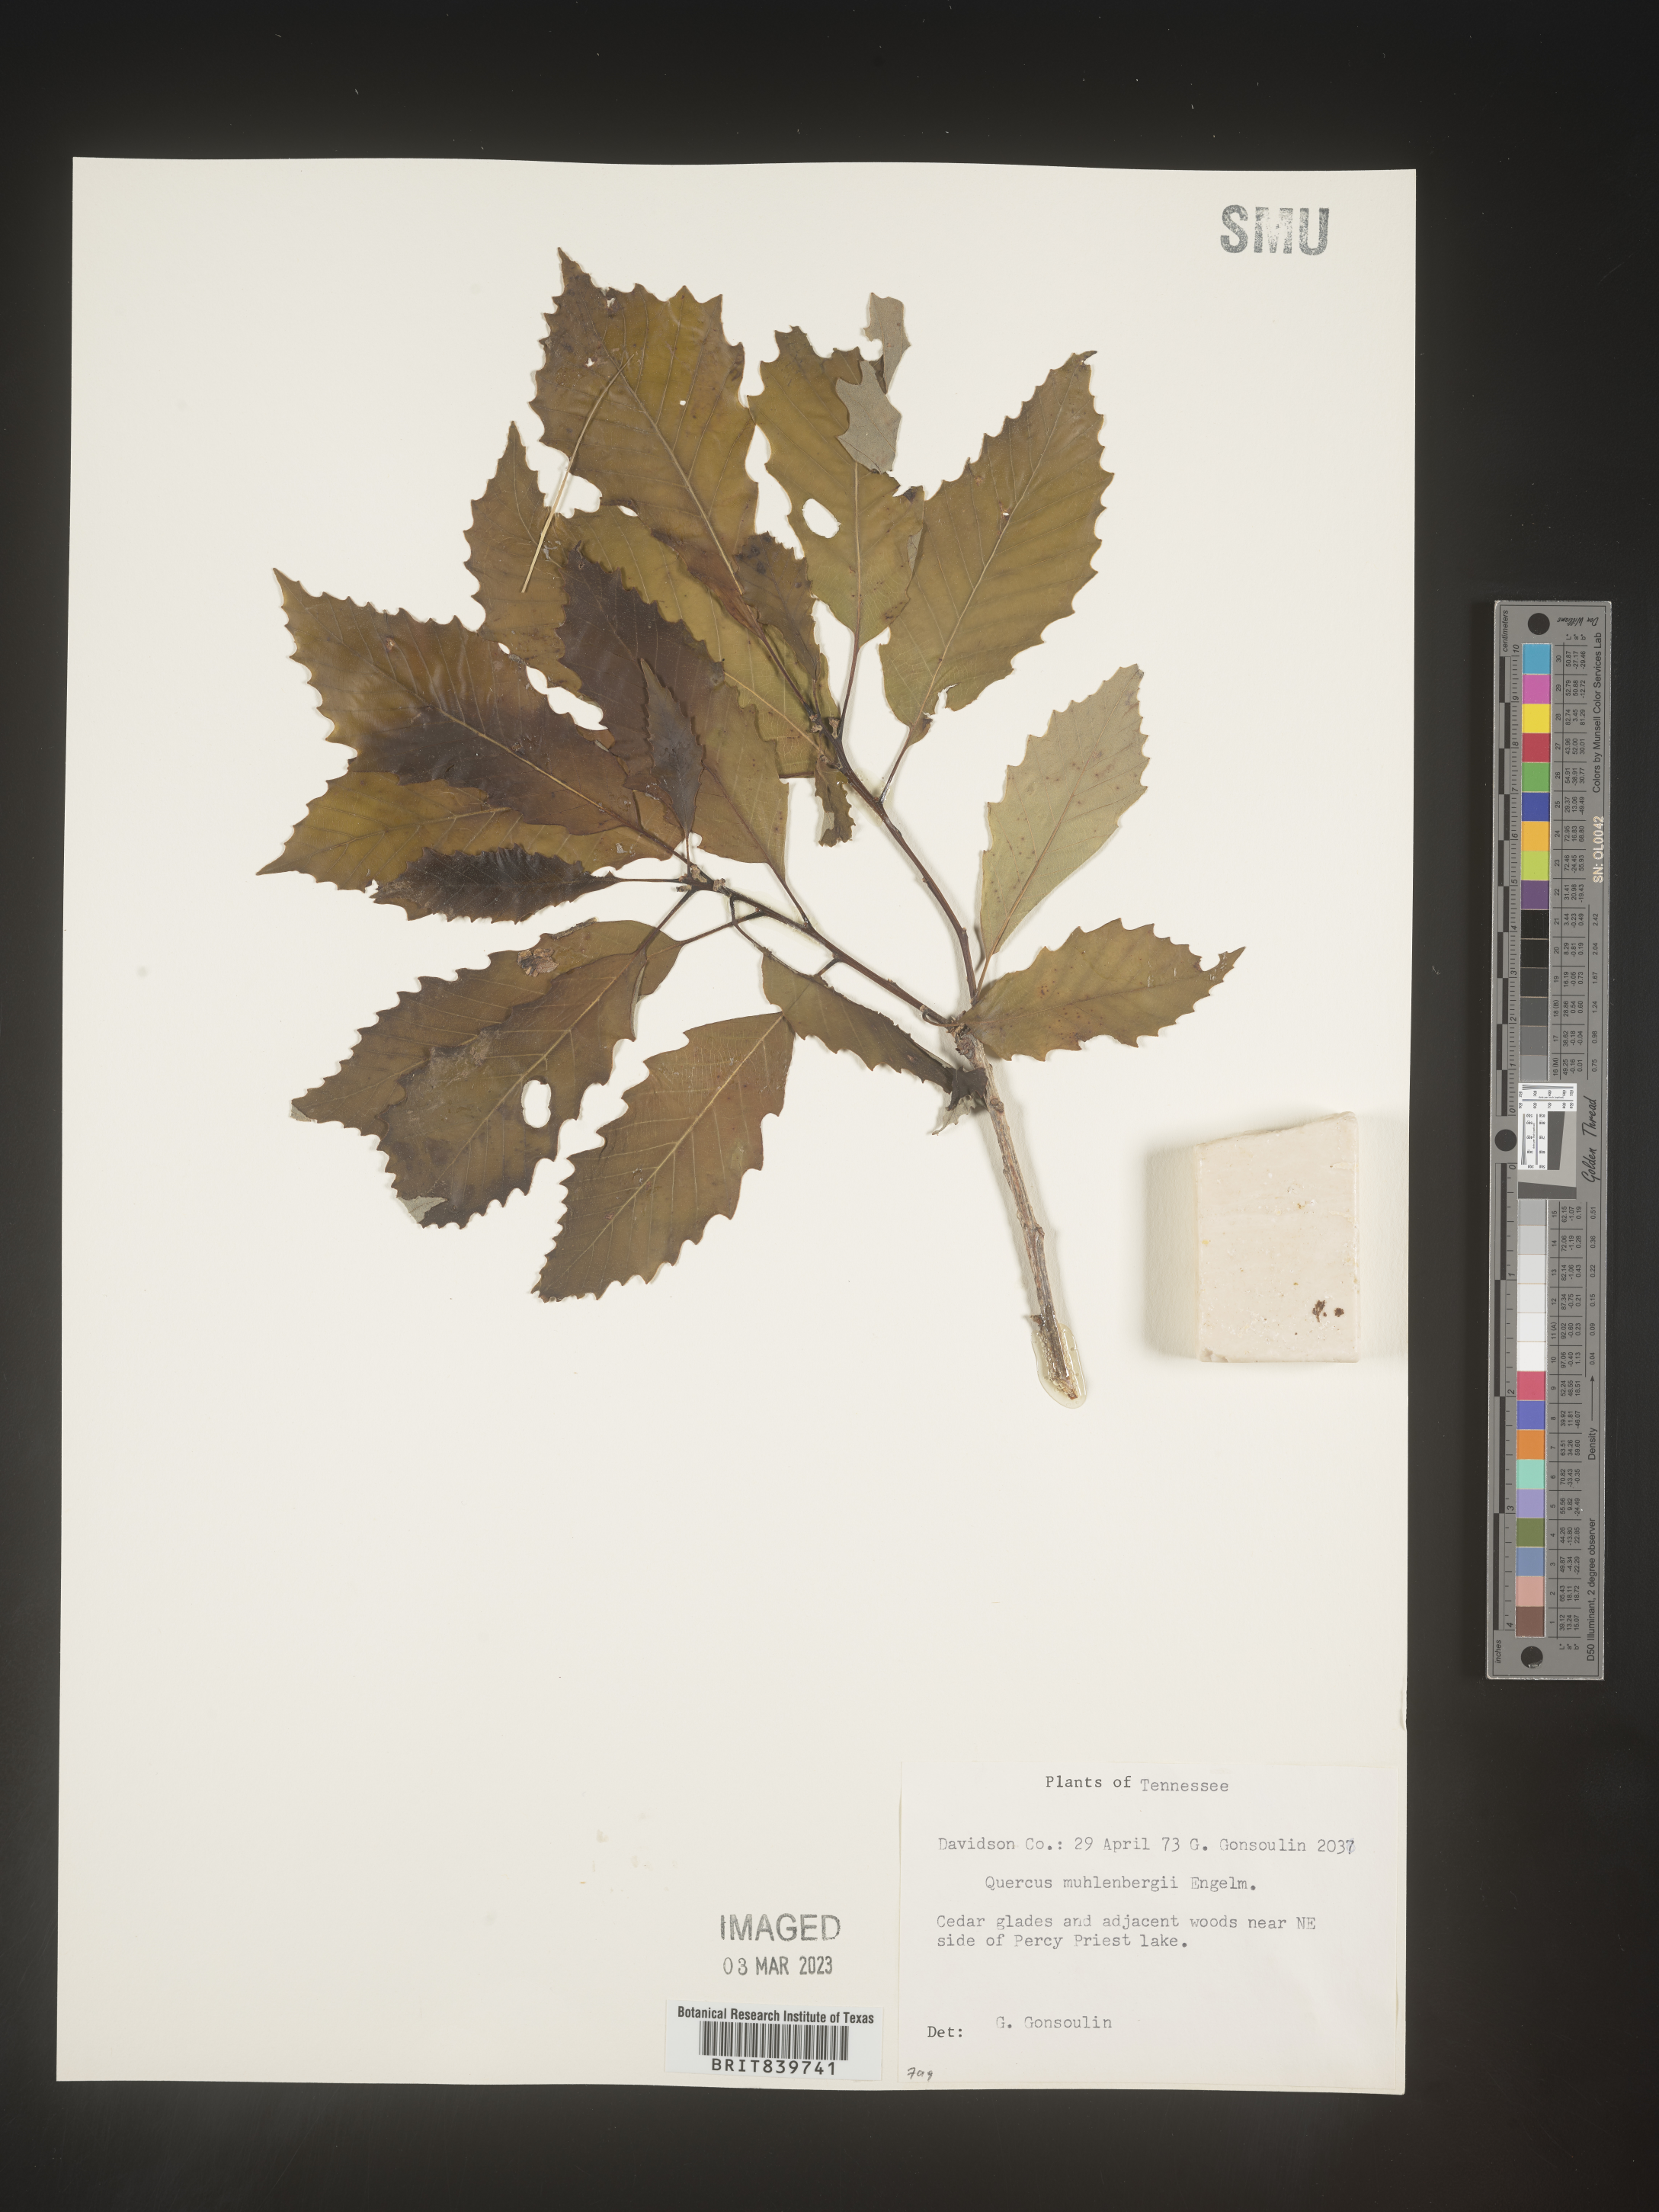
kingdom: Plantae
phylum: Tracheophyta
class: Magnoliopsida
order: Fagales
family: Fagaceae
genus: Quercus
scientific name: Quercus muehlenbergii
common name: Chinkapin oak
